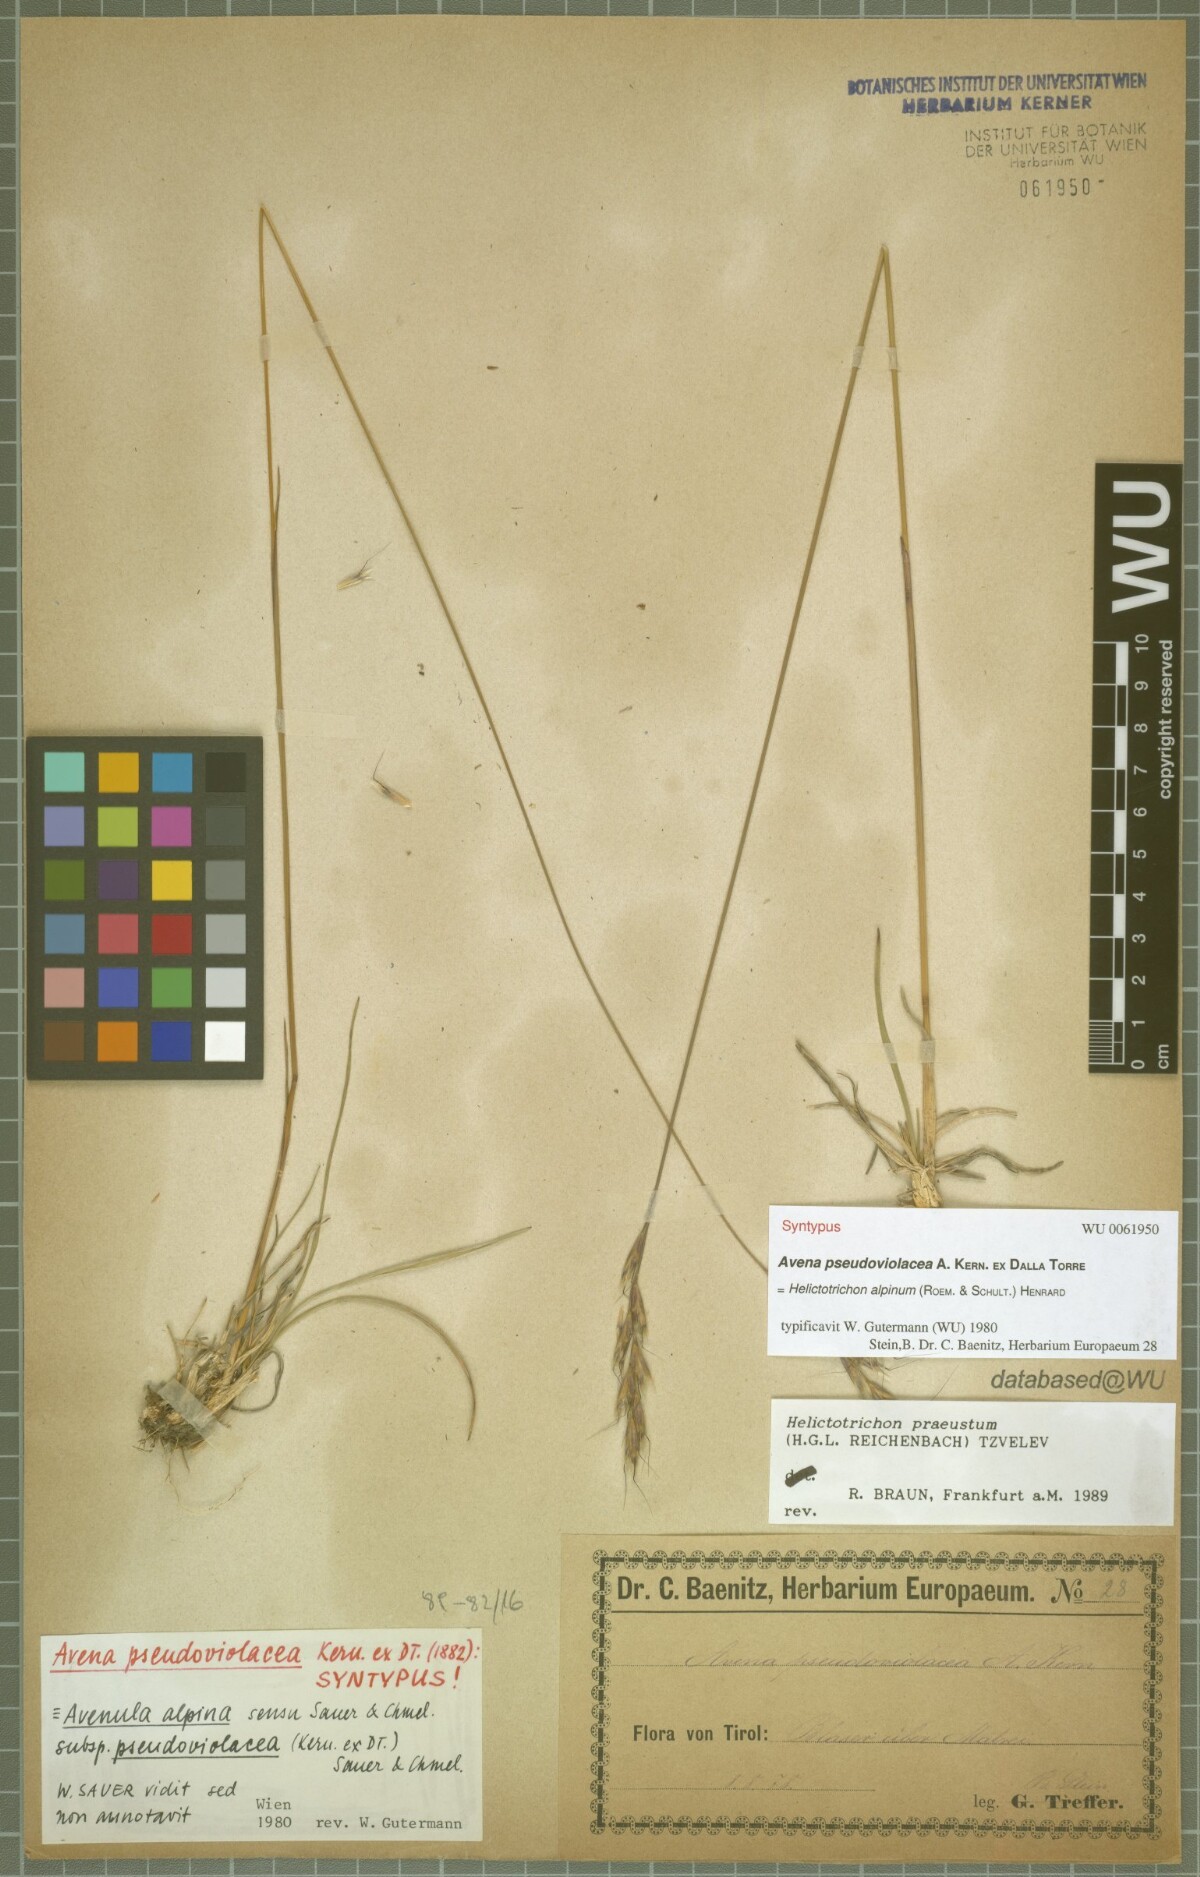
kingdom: Plantae
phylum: Tracheophyta
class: Liliopsida
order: Poales
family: Poaceae
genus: Helictochloa
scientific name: Helictochloa praeusta
